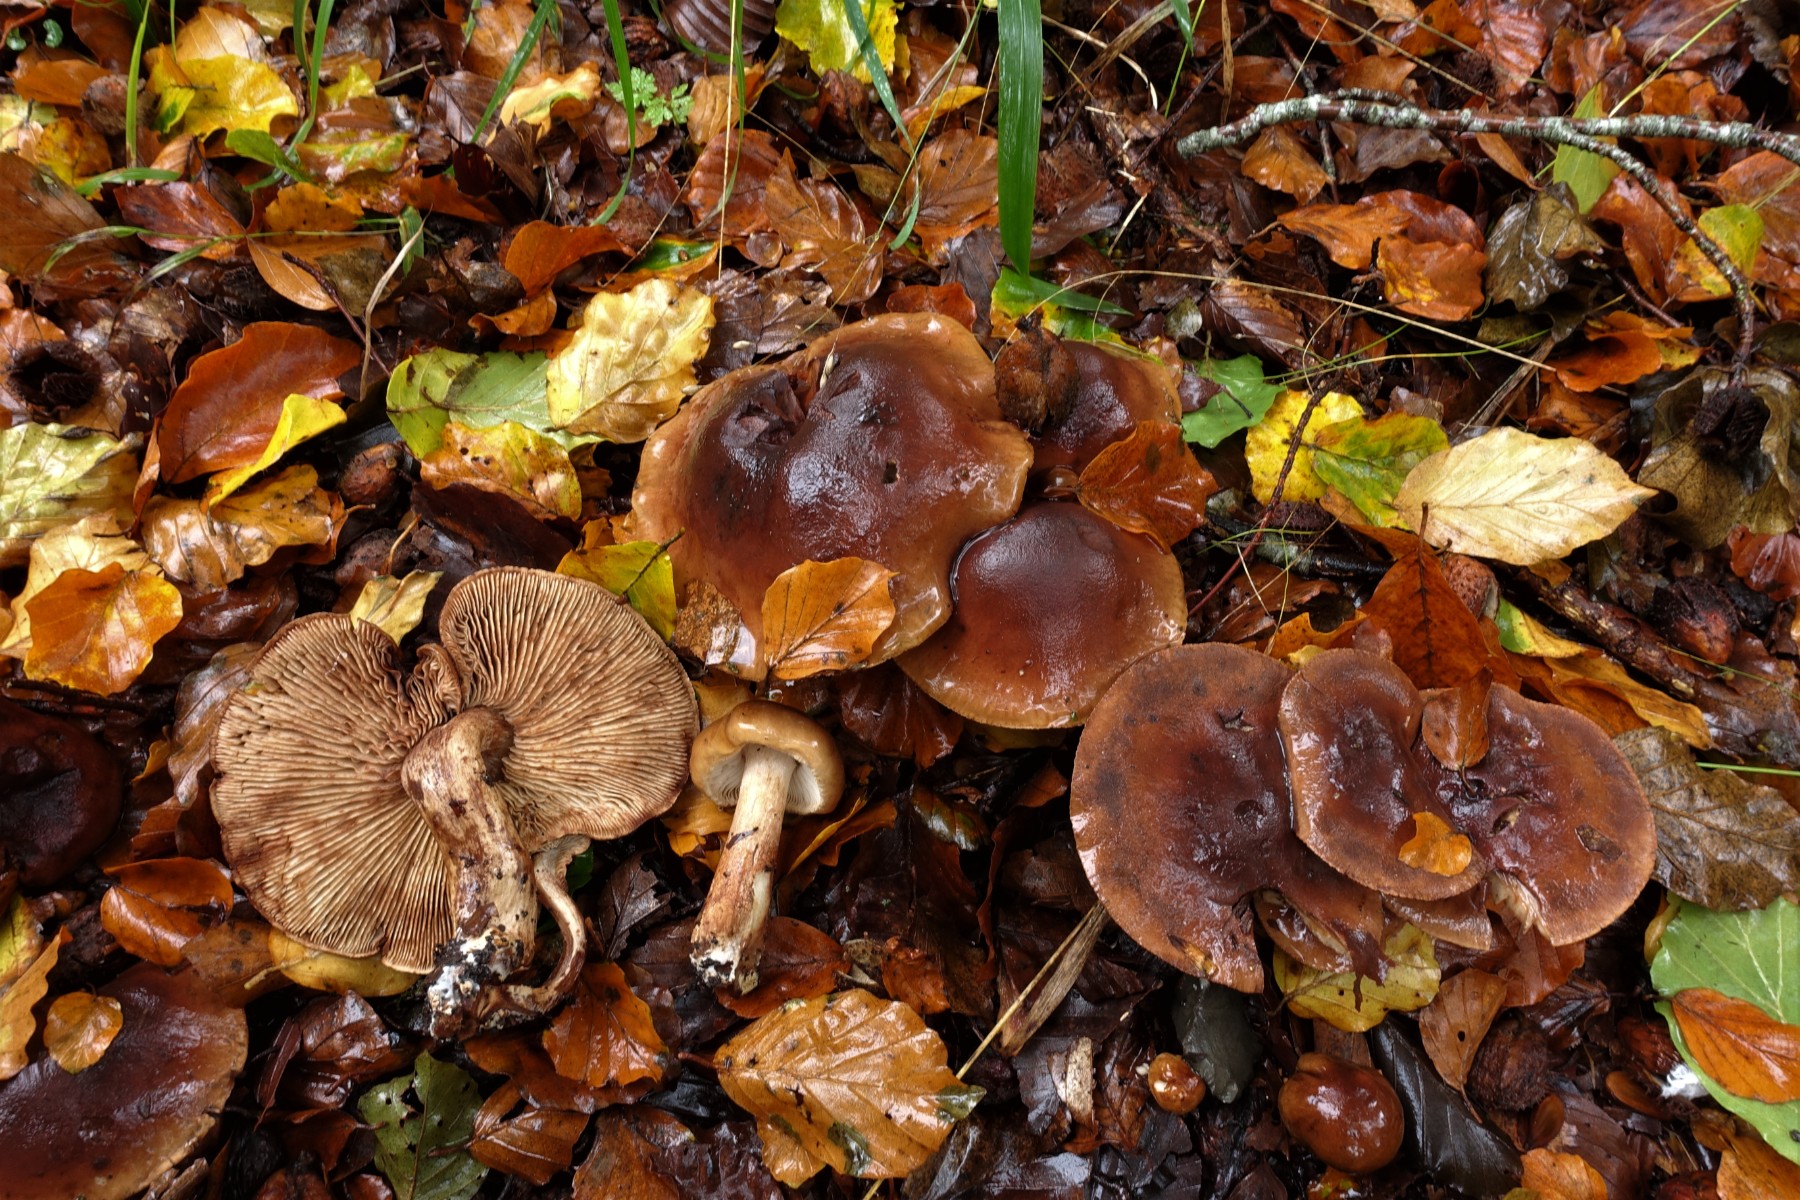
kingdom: Fungi
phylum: Basidiomycota
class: Agaricomycetes
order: Agaricales
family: Tricholomataceae
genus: Tricholoma
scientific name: Tricholoma ustale
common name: sveden ridderhat
